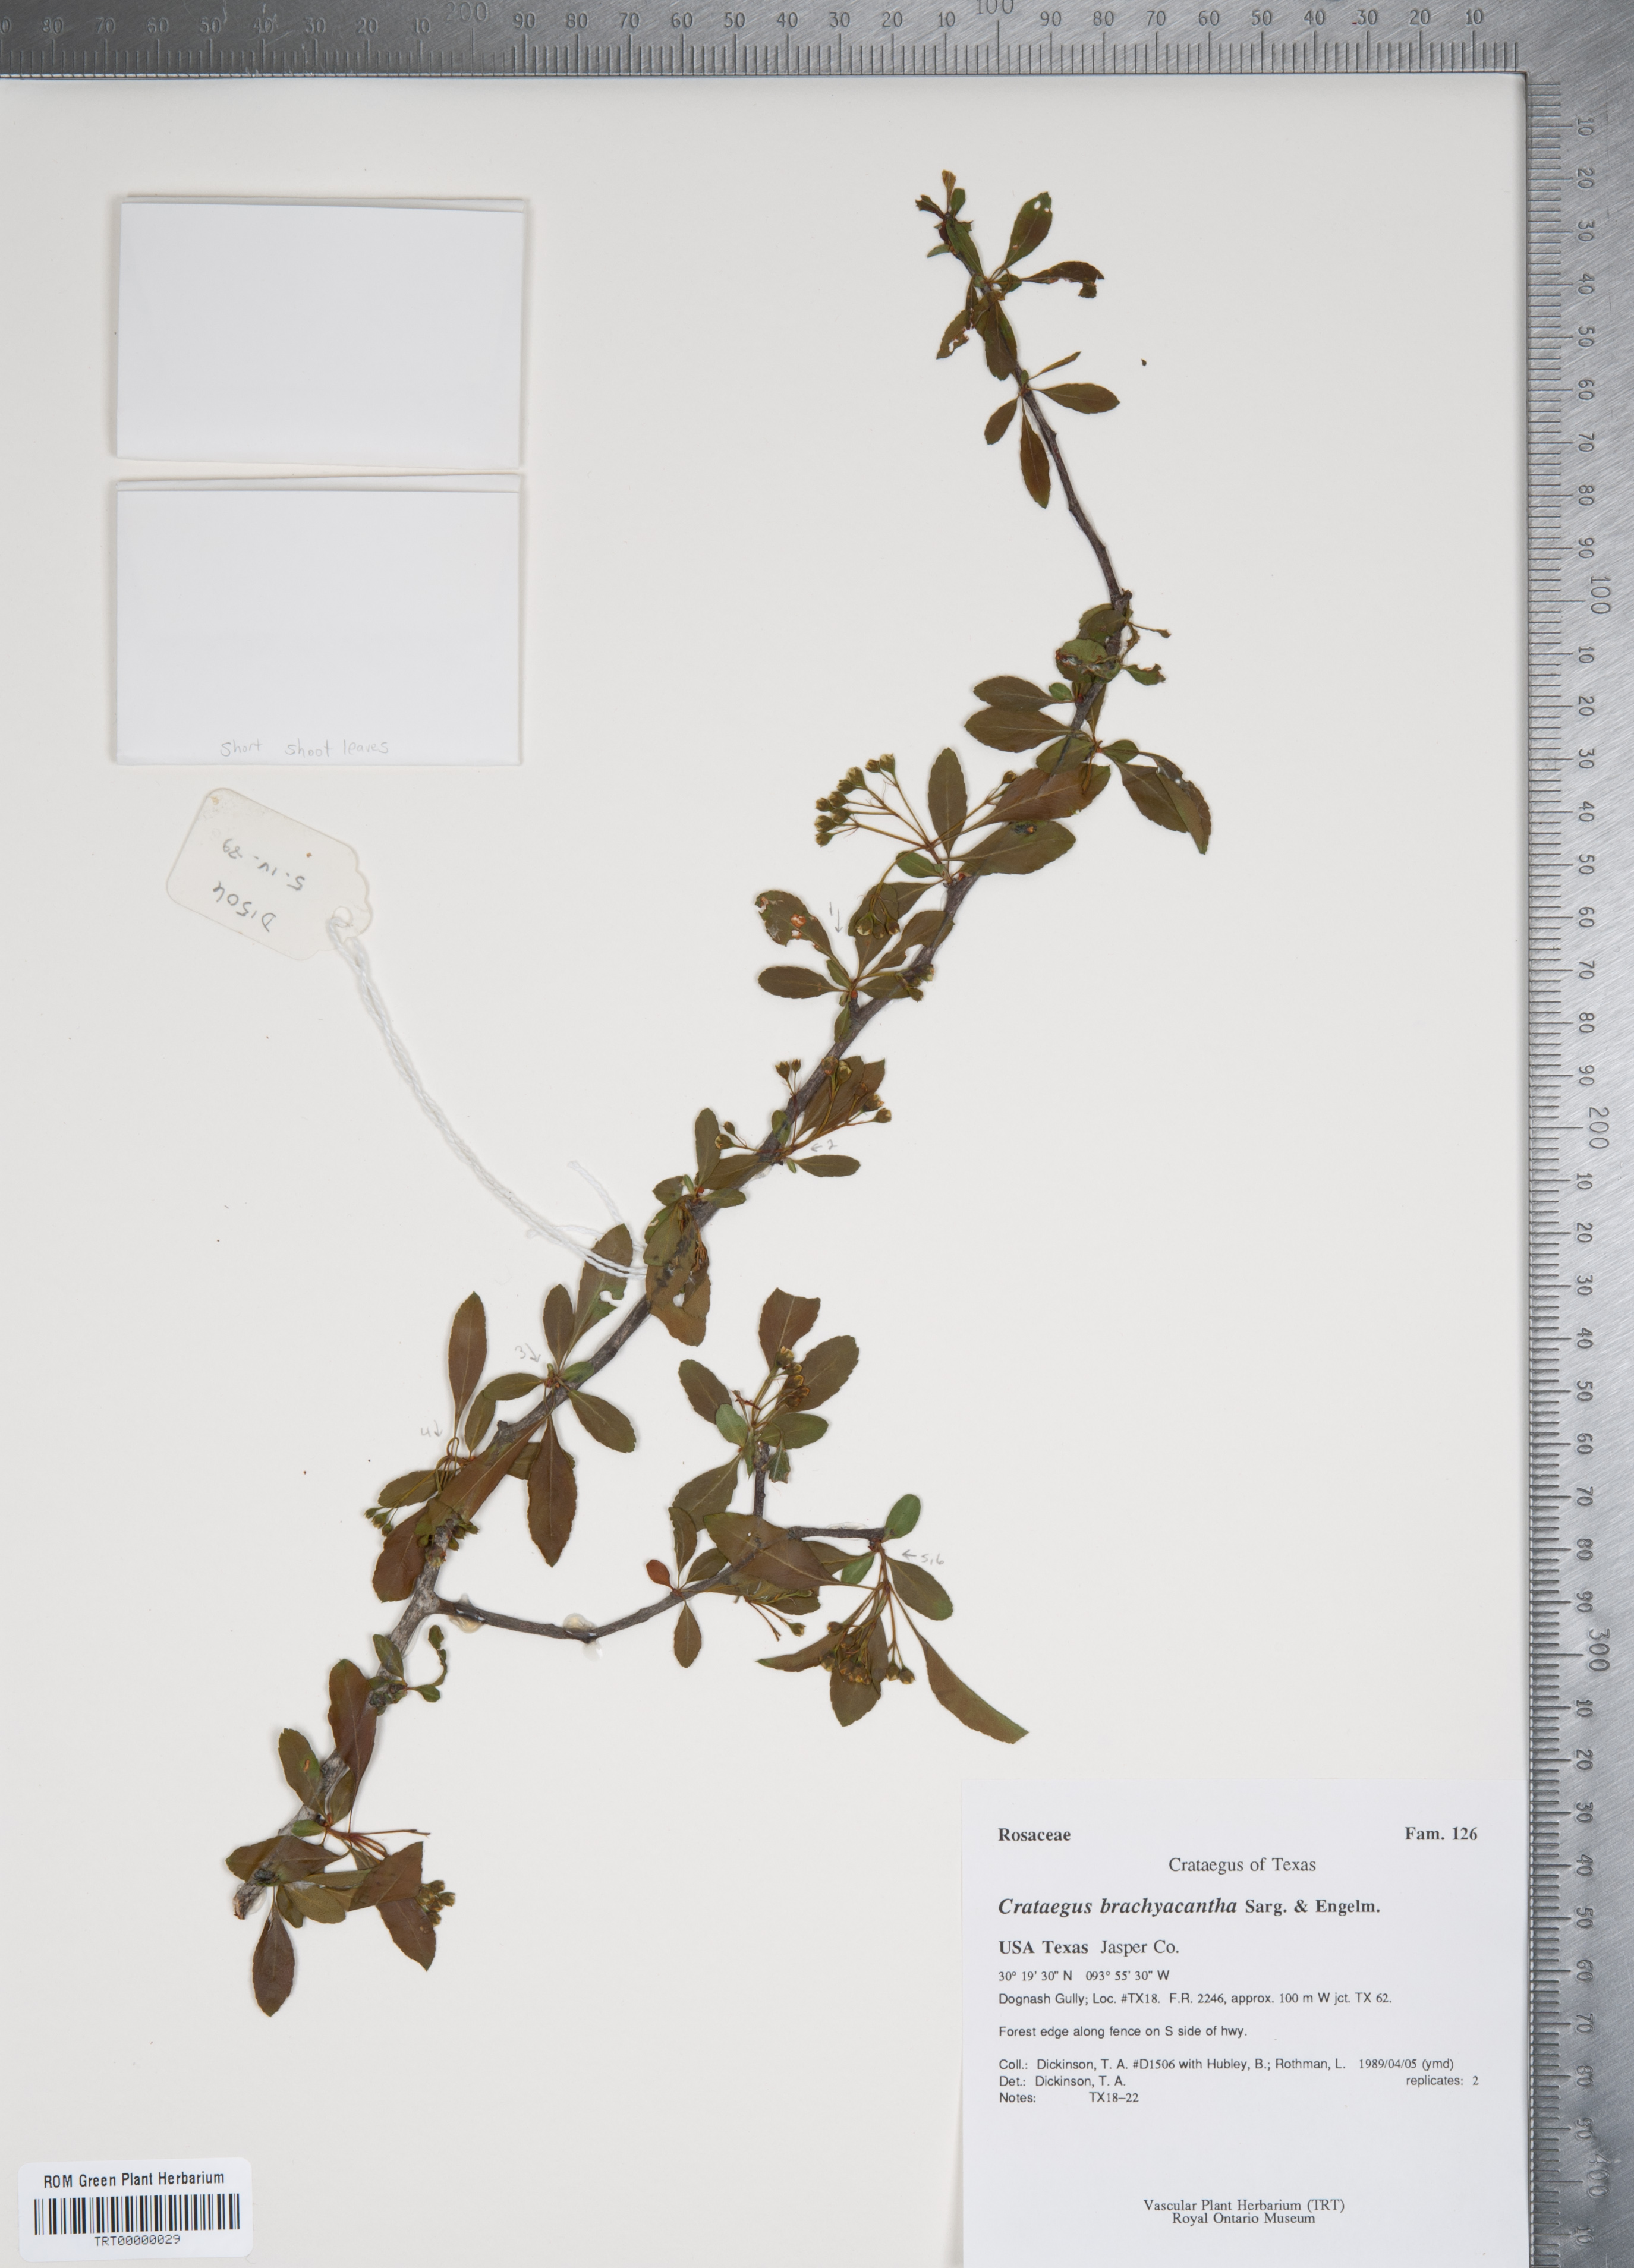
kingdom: Plantae
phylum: Tracheophyta
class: Magnoliopsida
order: Rosales
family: Rosaceae
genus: Crataegus
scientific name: Crataegus brachyacantha
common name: Blueberry-hawthorn
